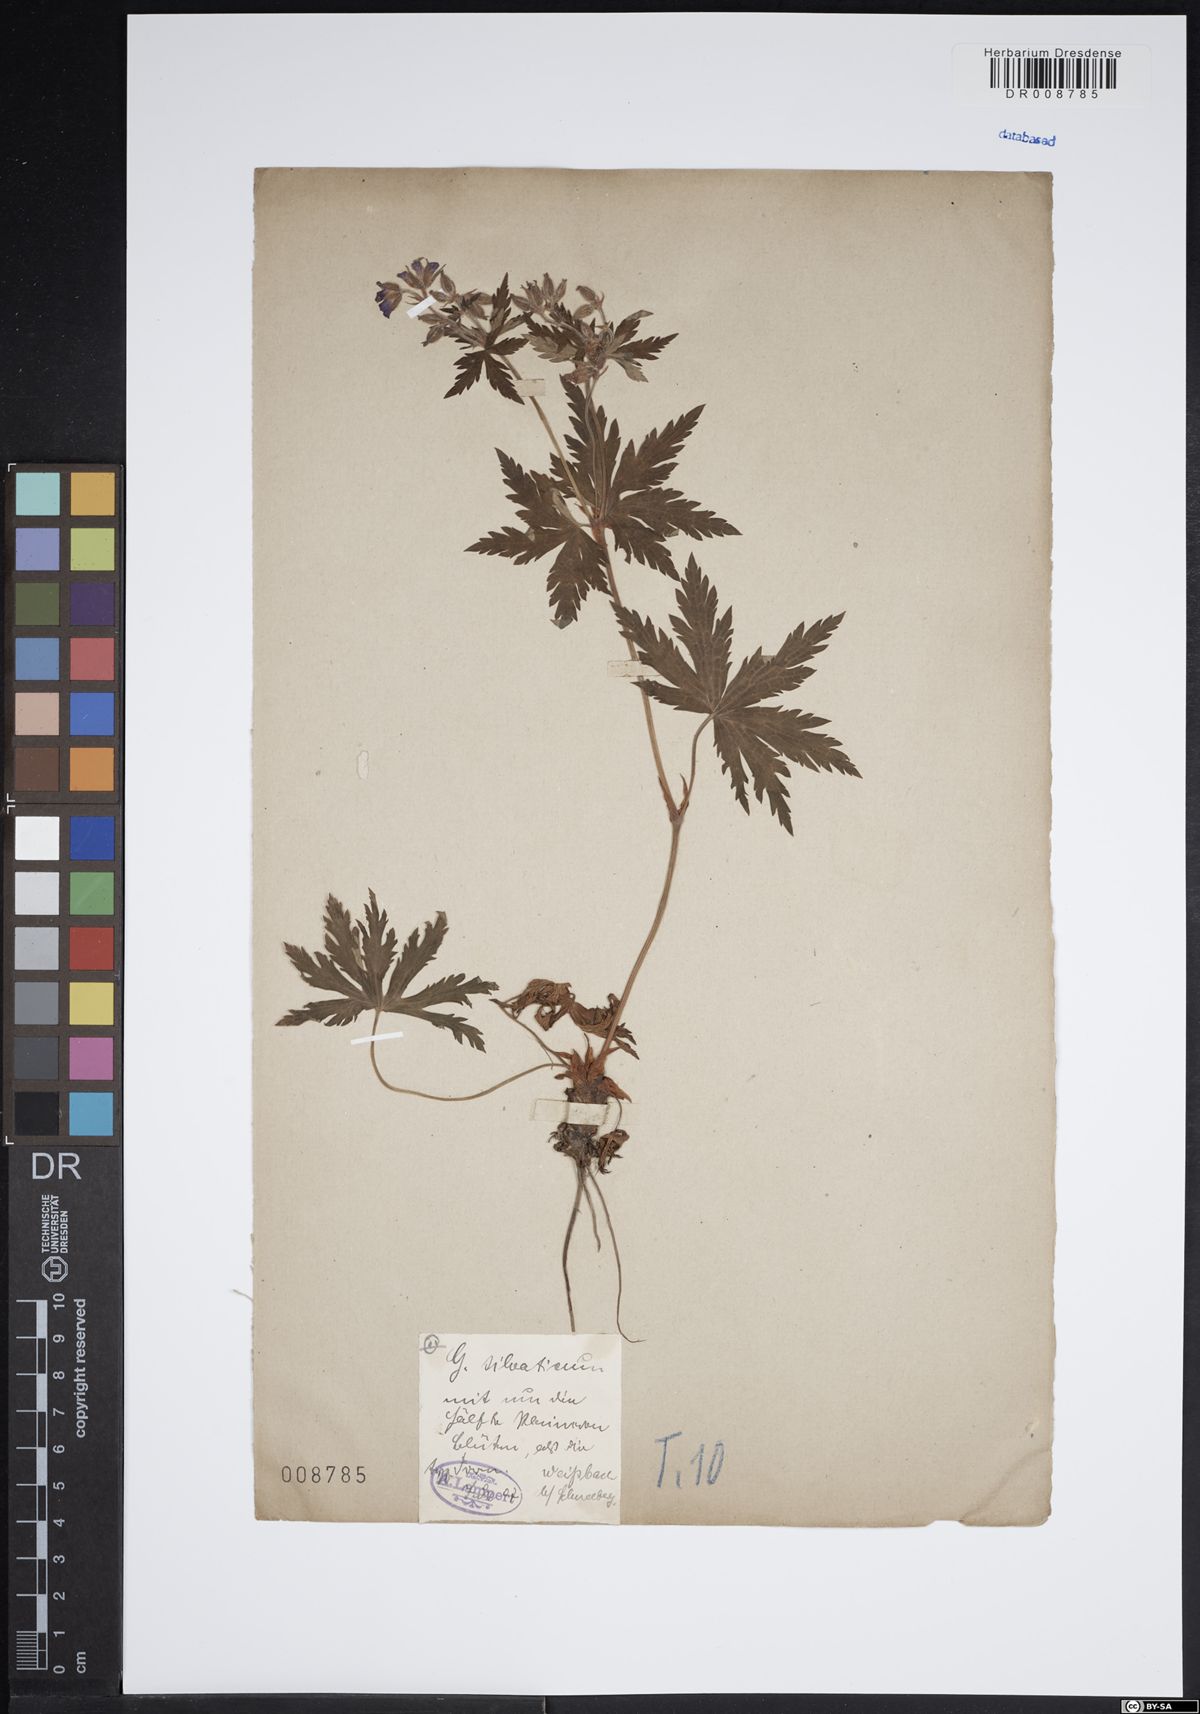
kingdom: Plantae
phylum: Tracheophyta
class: Magnoliopsida
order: Geraniales
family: Geraniaceae
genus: Geranium
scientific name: Geranium sylvaticum
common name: Wood crane's-bill
